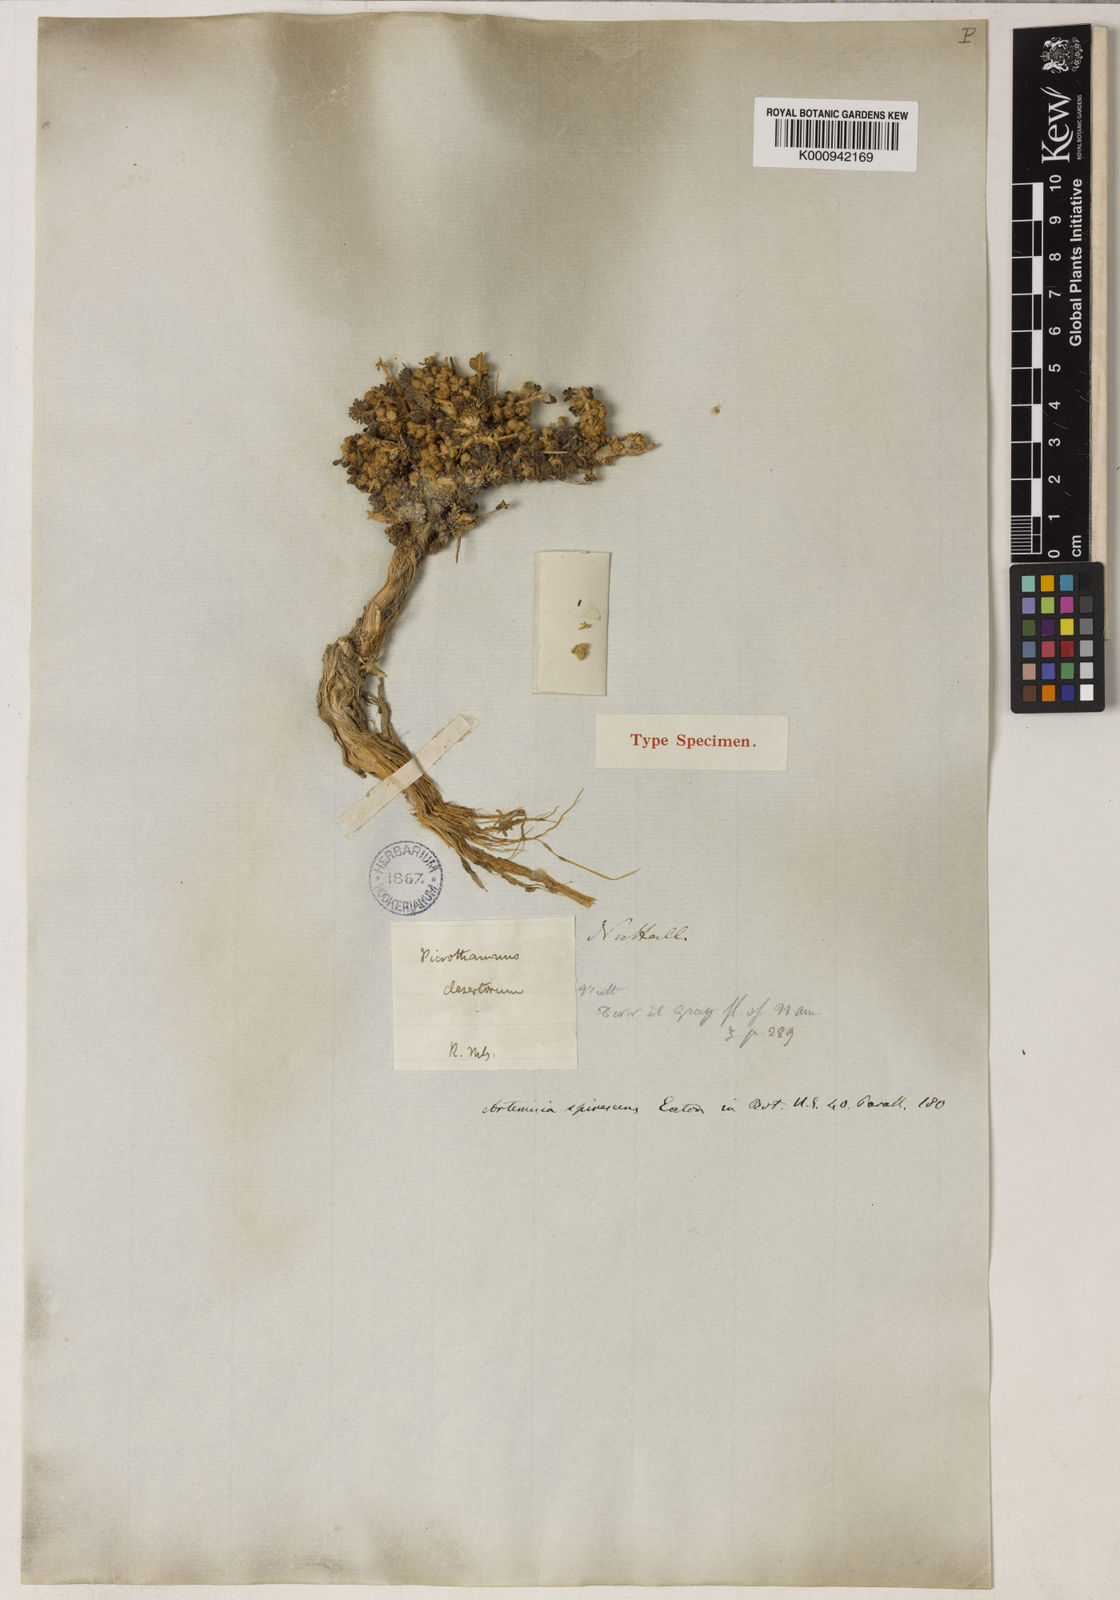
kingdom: Plantae
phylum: Tracheophyta
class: Magnoliopsida
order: Asterales
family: Asteraceae
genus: Artemisia
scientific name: Artemisia spinescens
